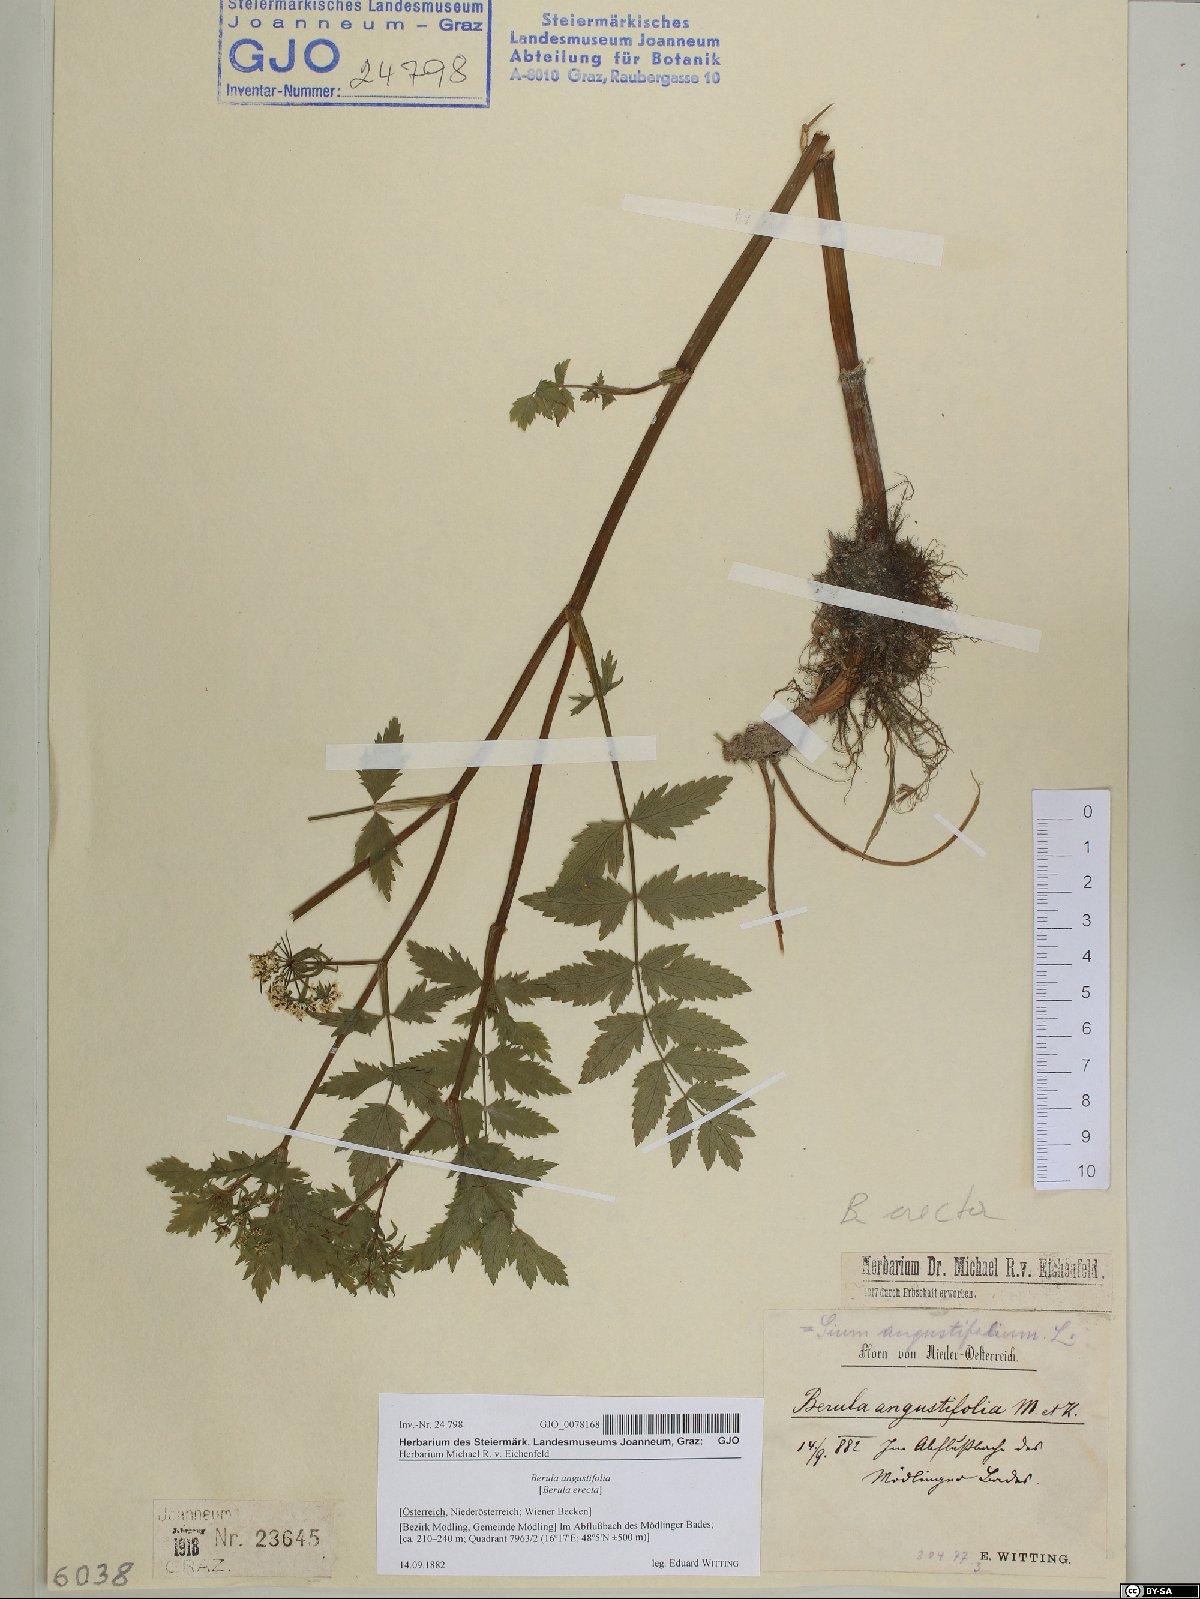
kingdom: Plantae
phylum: Tracheophyta
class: Magnoliopsida
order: Apiales
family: Apiaceae
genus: Berula
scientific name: Berula erecta
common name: Lesser water-parsnip
